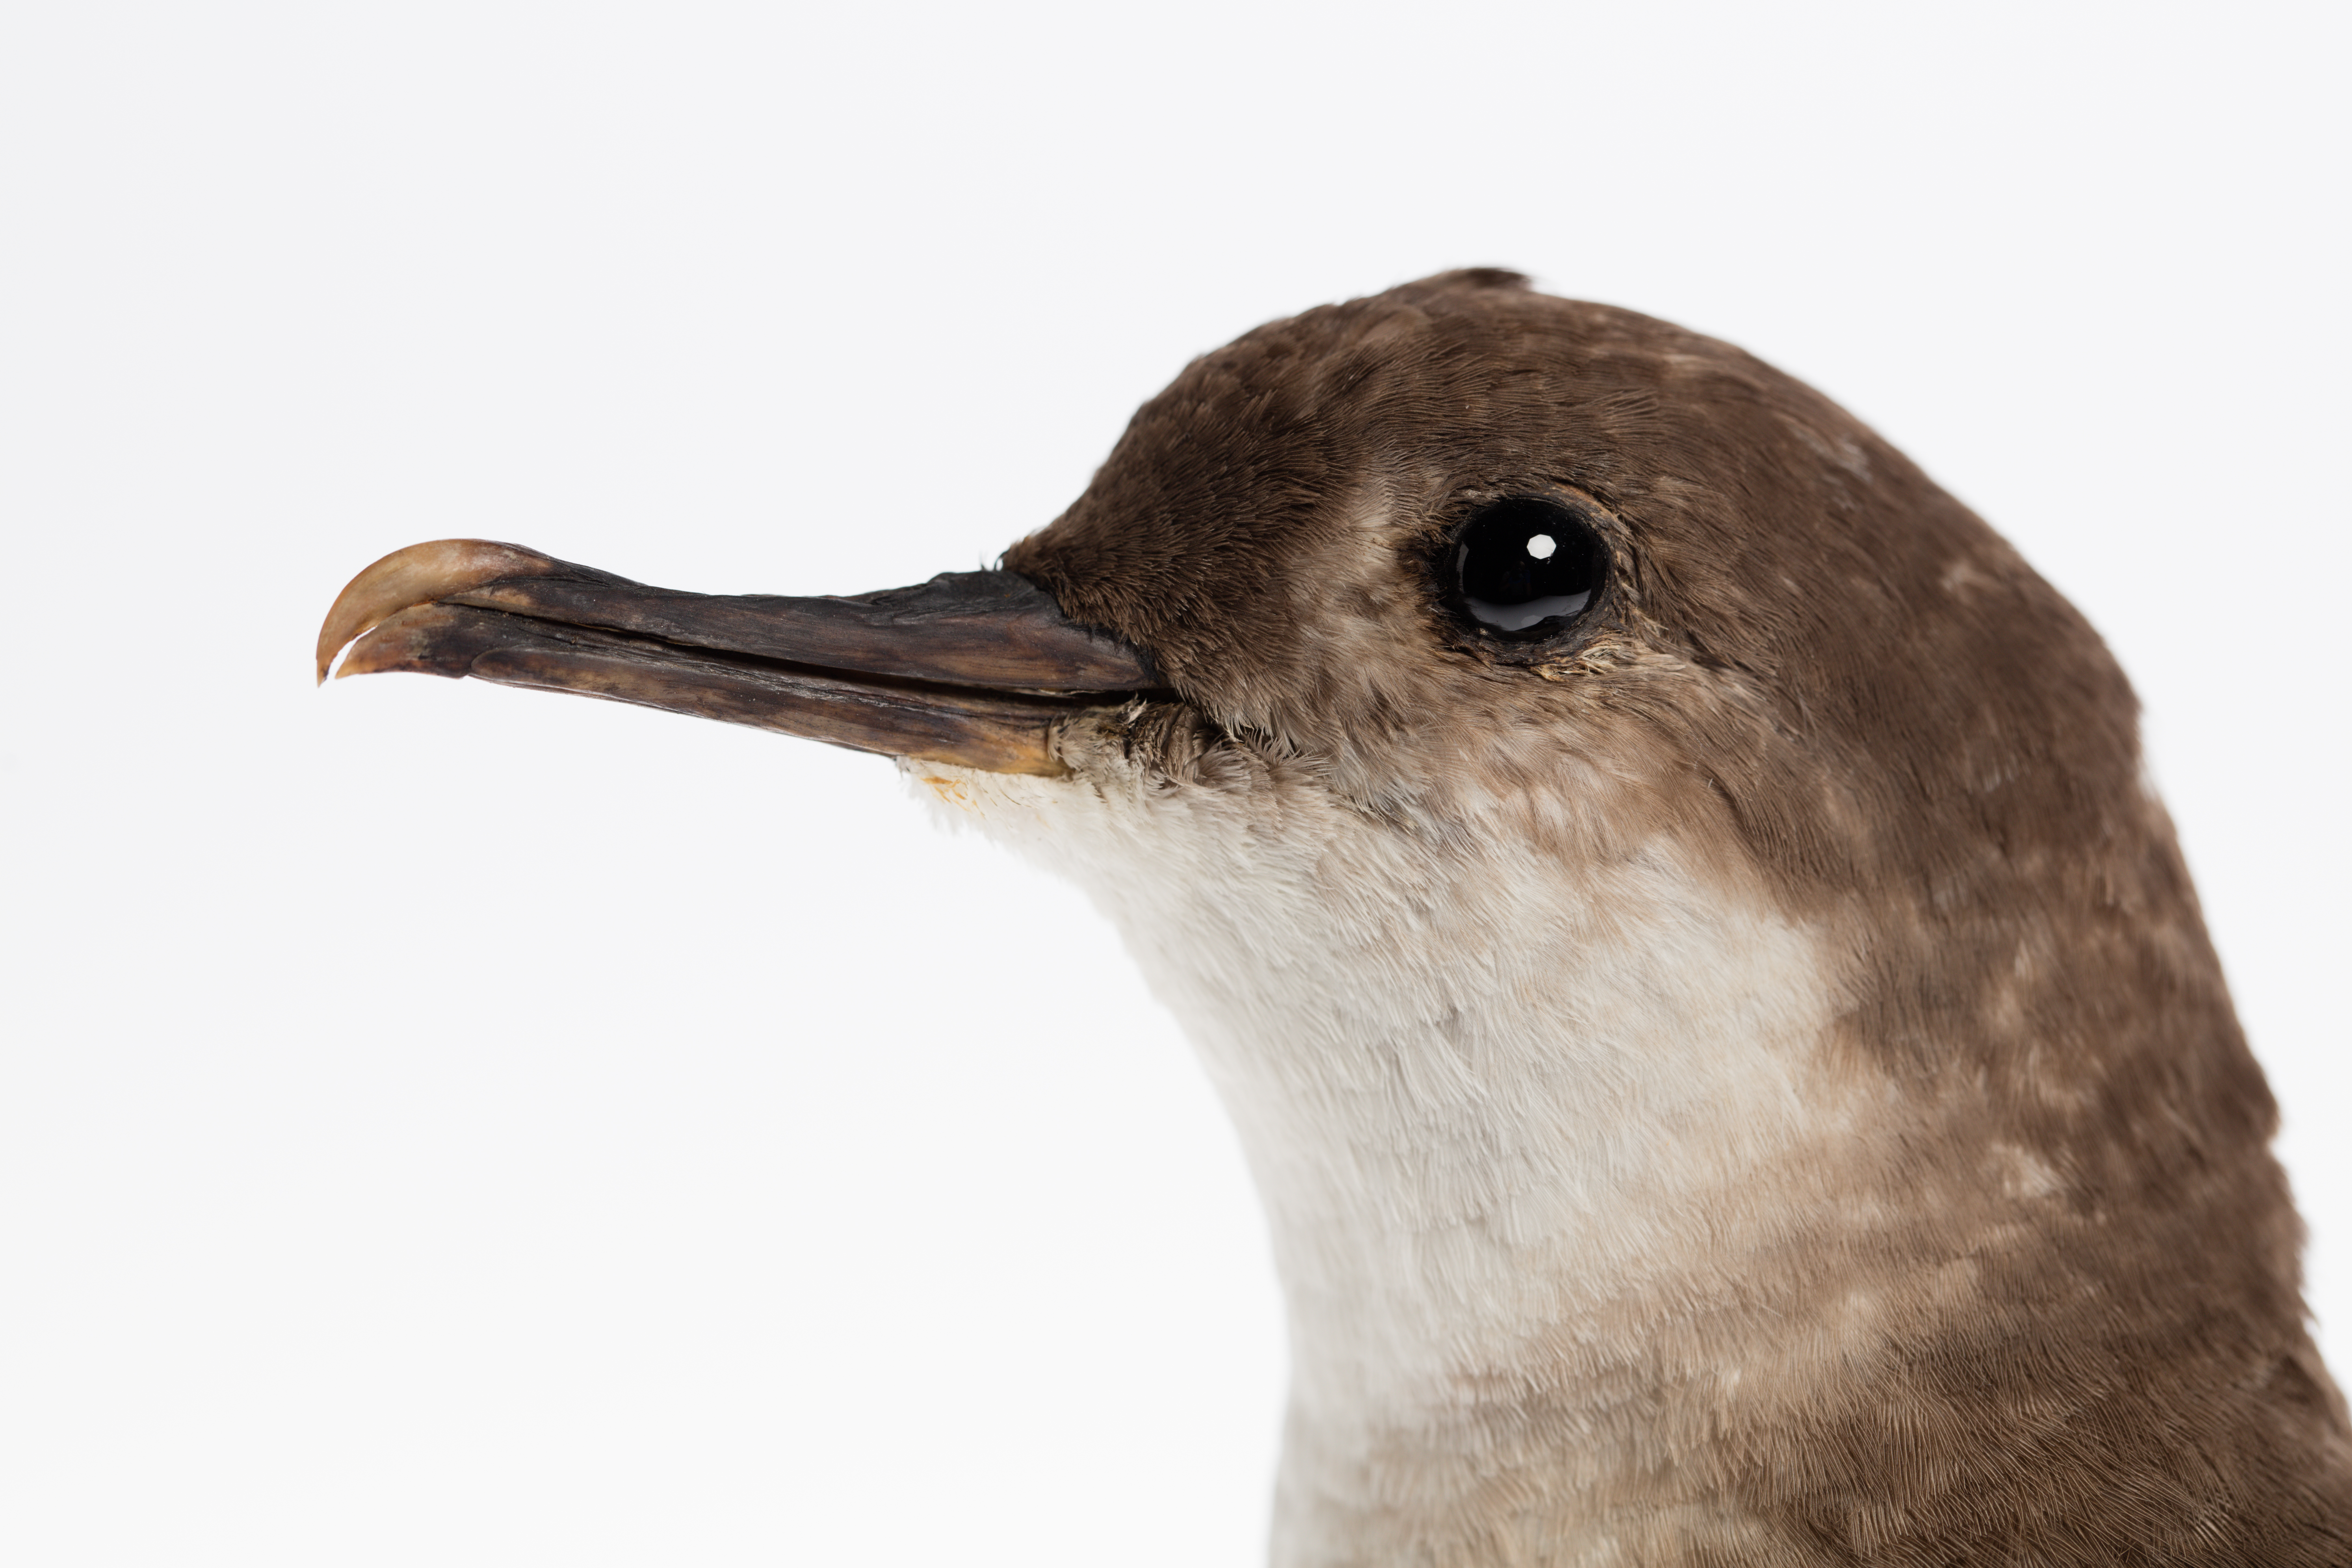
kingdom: Animalia
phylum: Chordata
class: Aves
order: Procellariiformes
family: Procellariidae
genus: Ardenna
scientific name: Ardenna
